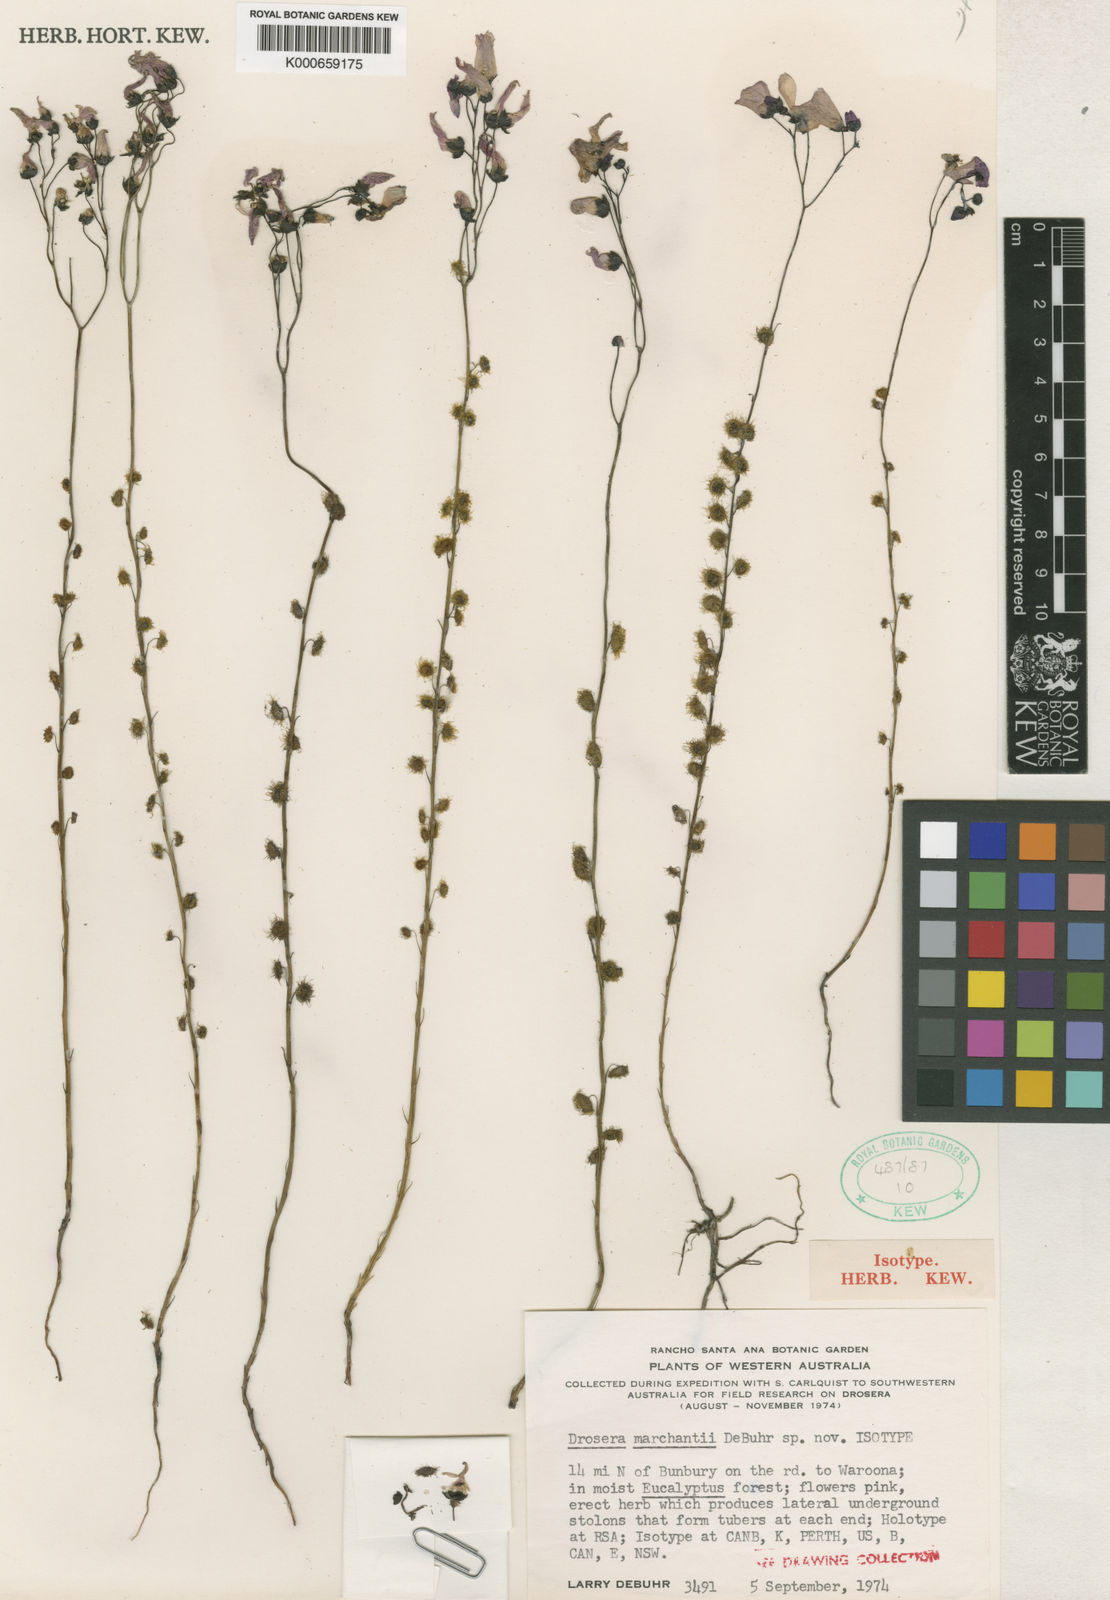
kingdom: Plantae
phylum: Tracheophyta
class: Magnoliopsida
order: Caryophyllales
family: Droseraceae
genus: Drosera
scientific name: Drosera marchantii
